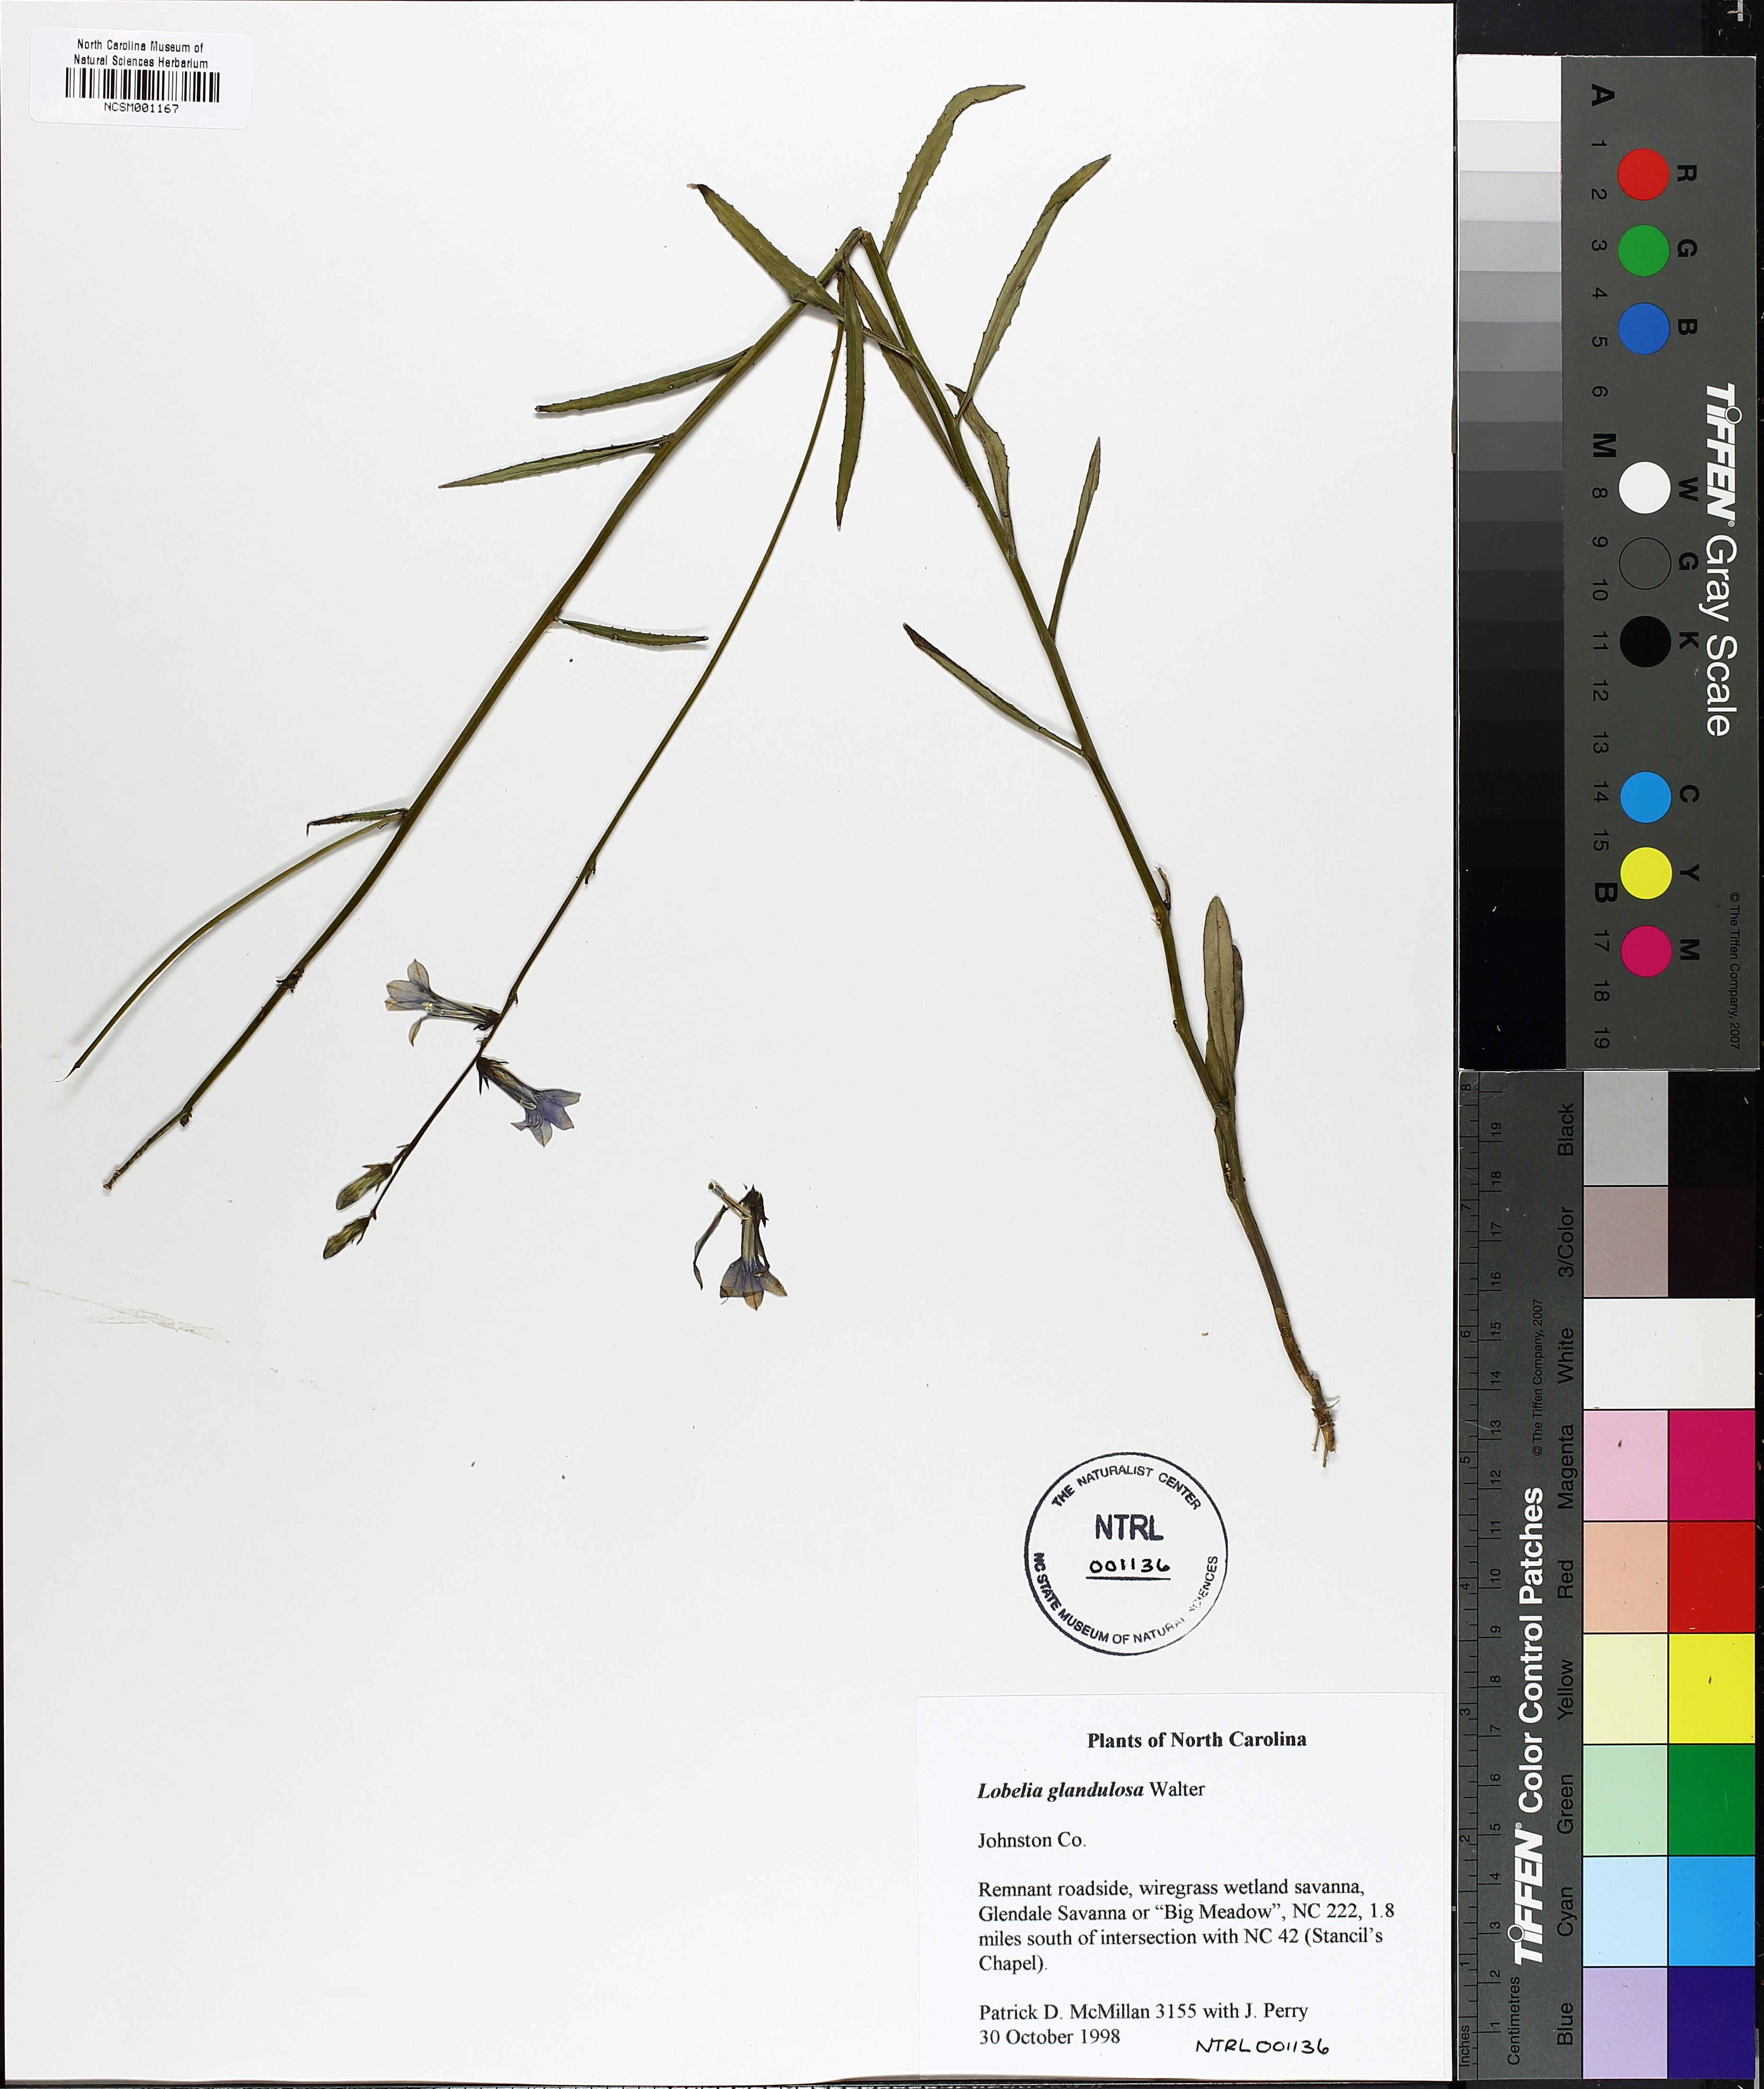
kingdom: Plantae
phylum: Tracheophyta
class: Magnoliopsida
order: Asterales
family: Campanulaceae
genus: Lobelia
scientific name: Lobelia glandulosa
